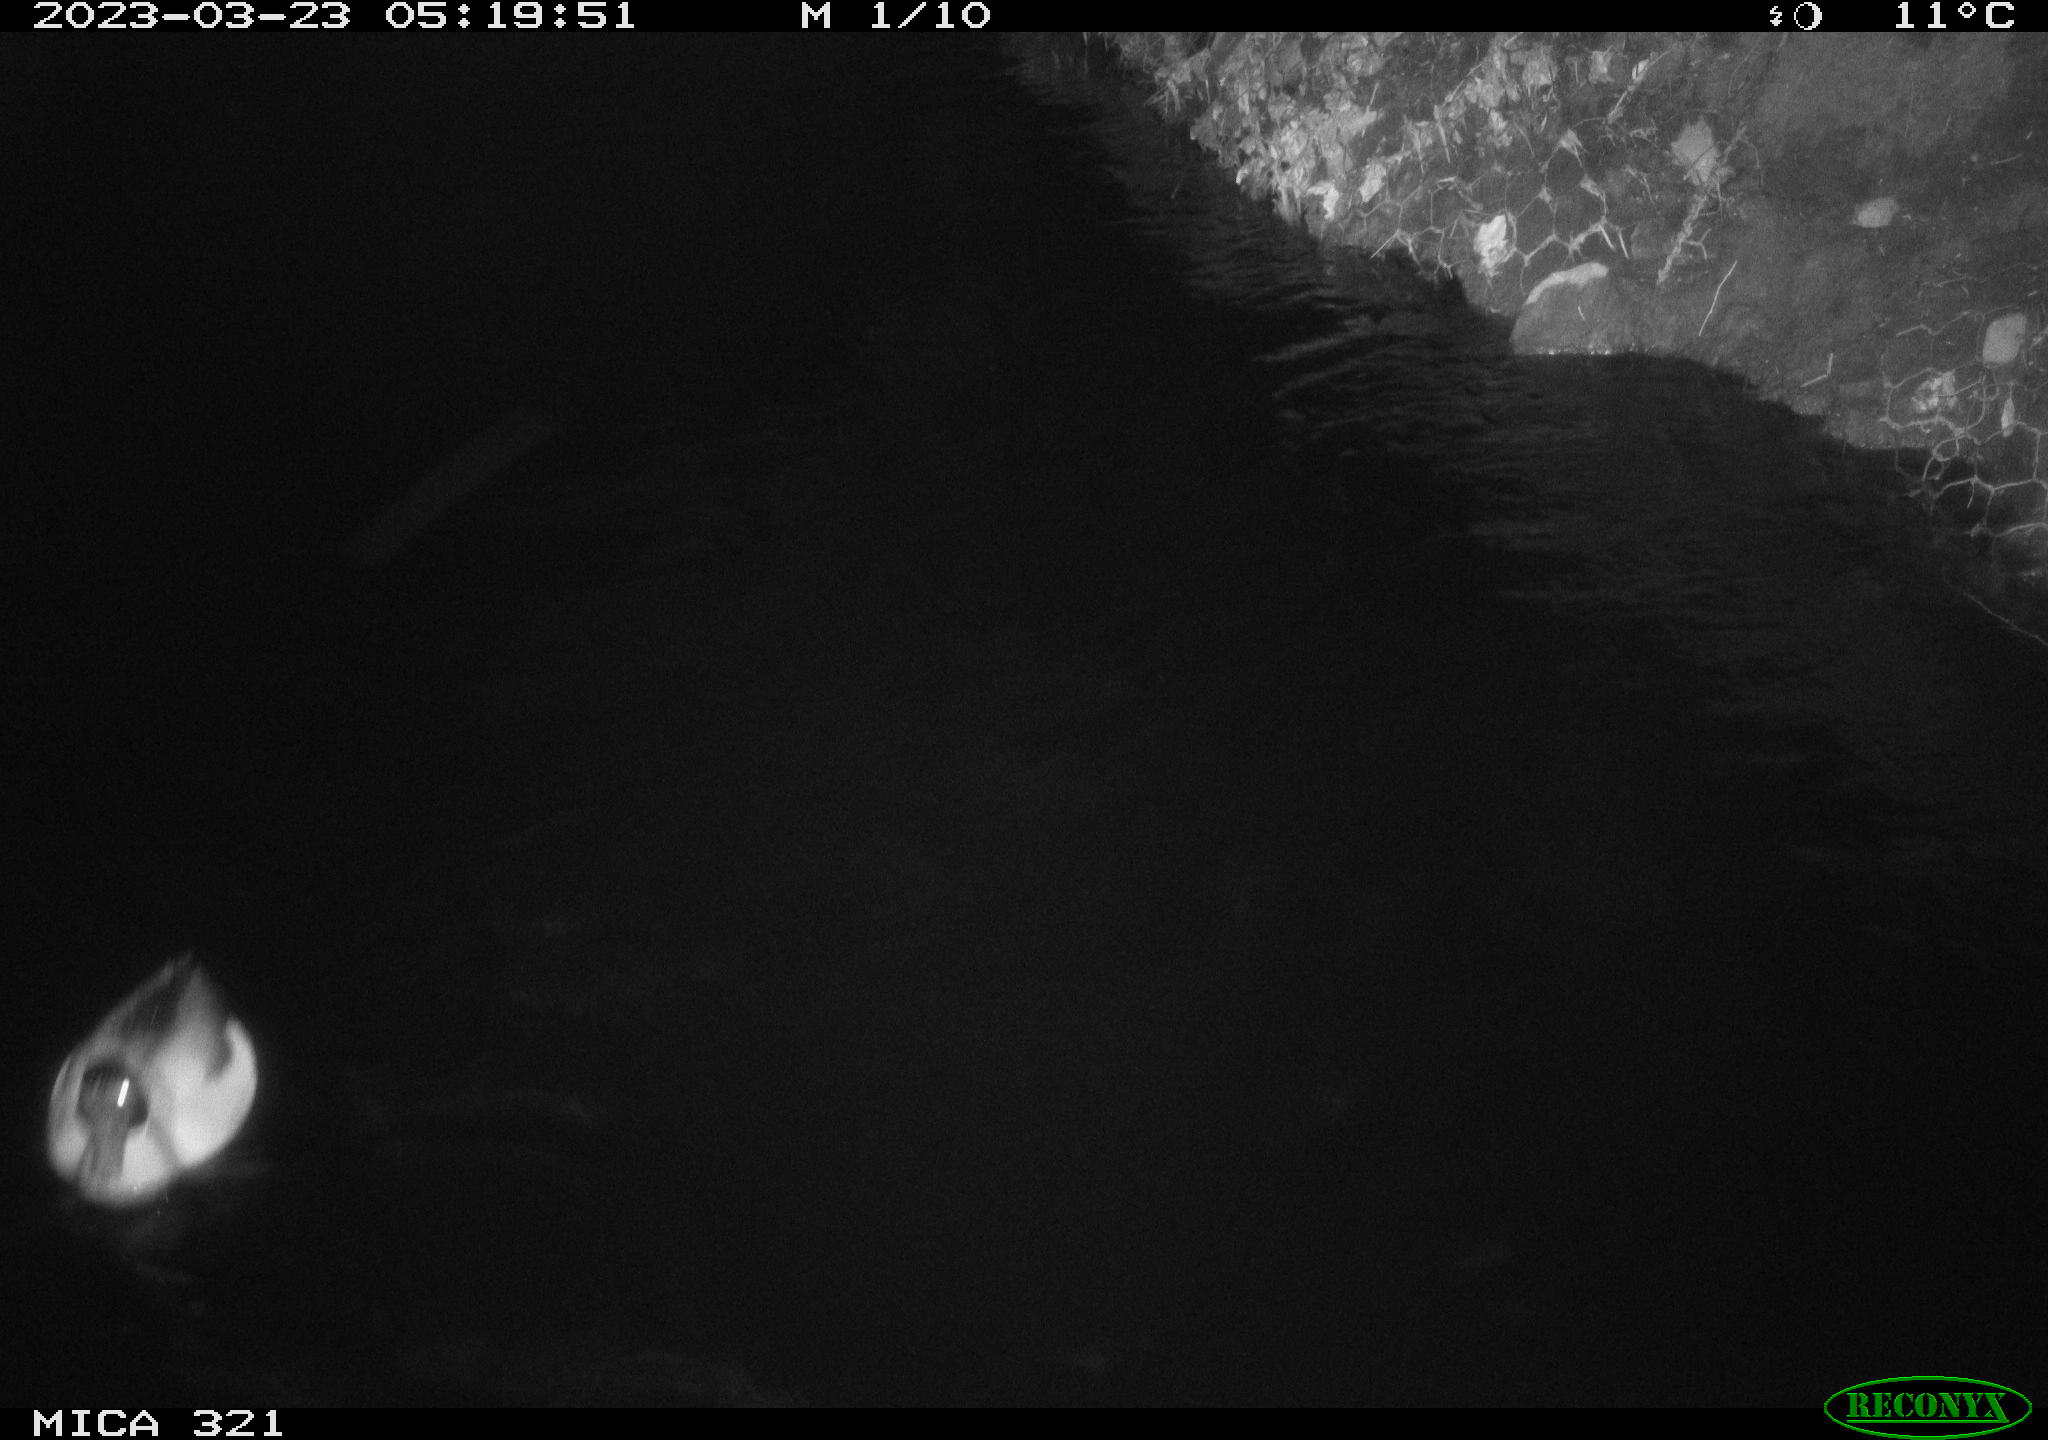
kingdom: Animalia
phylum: Chordata
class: Aves
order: Anseriformes
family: Anatidae
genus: Anas
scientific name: Anas
